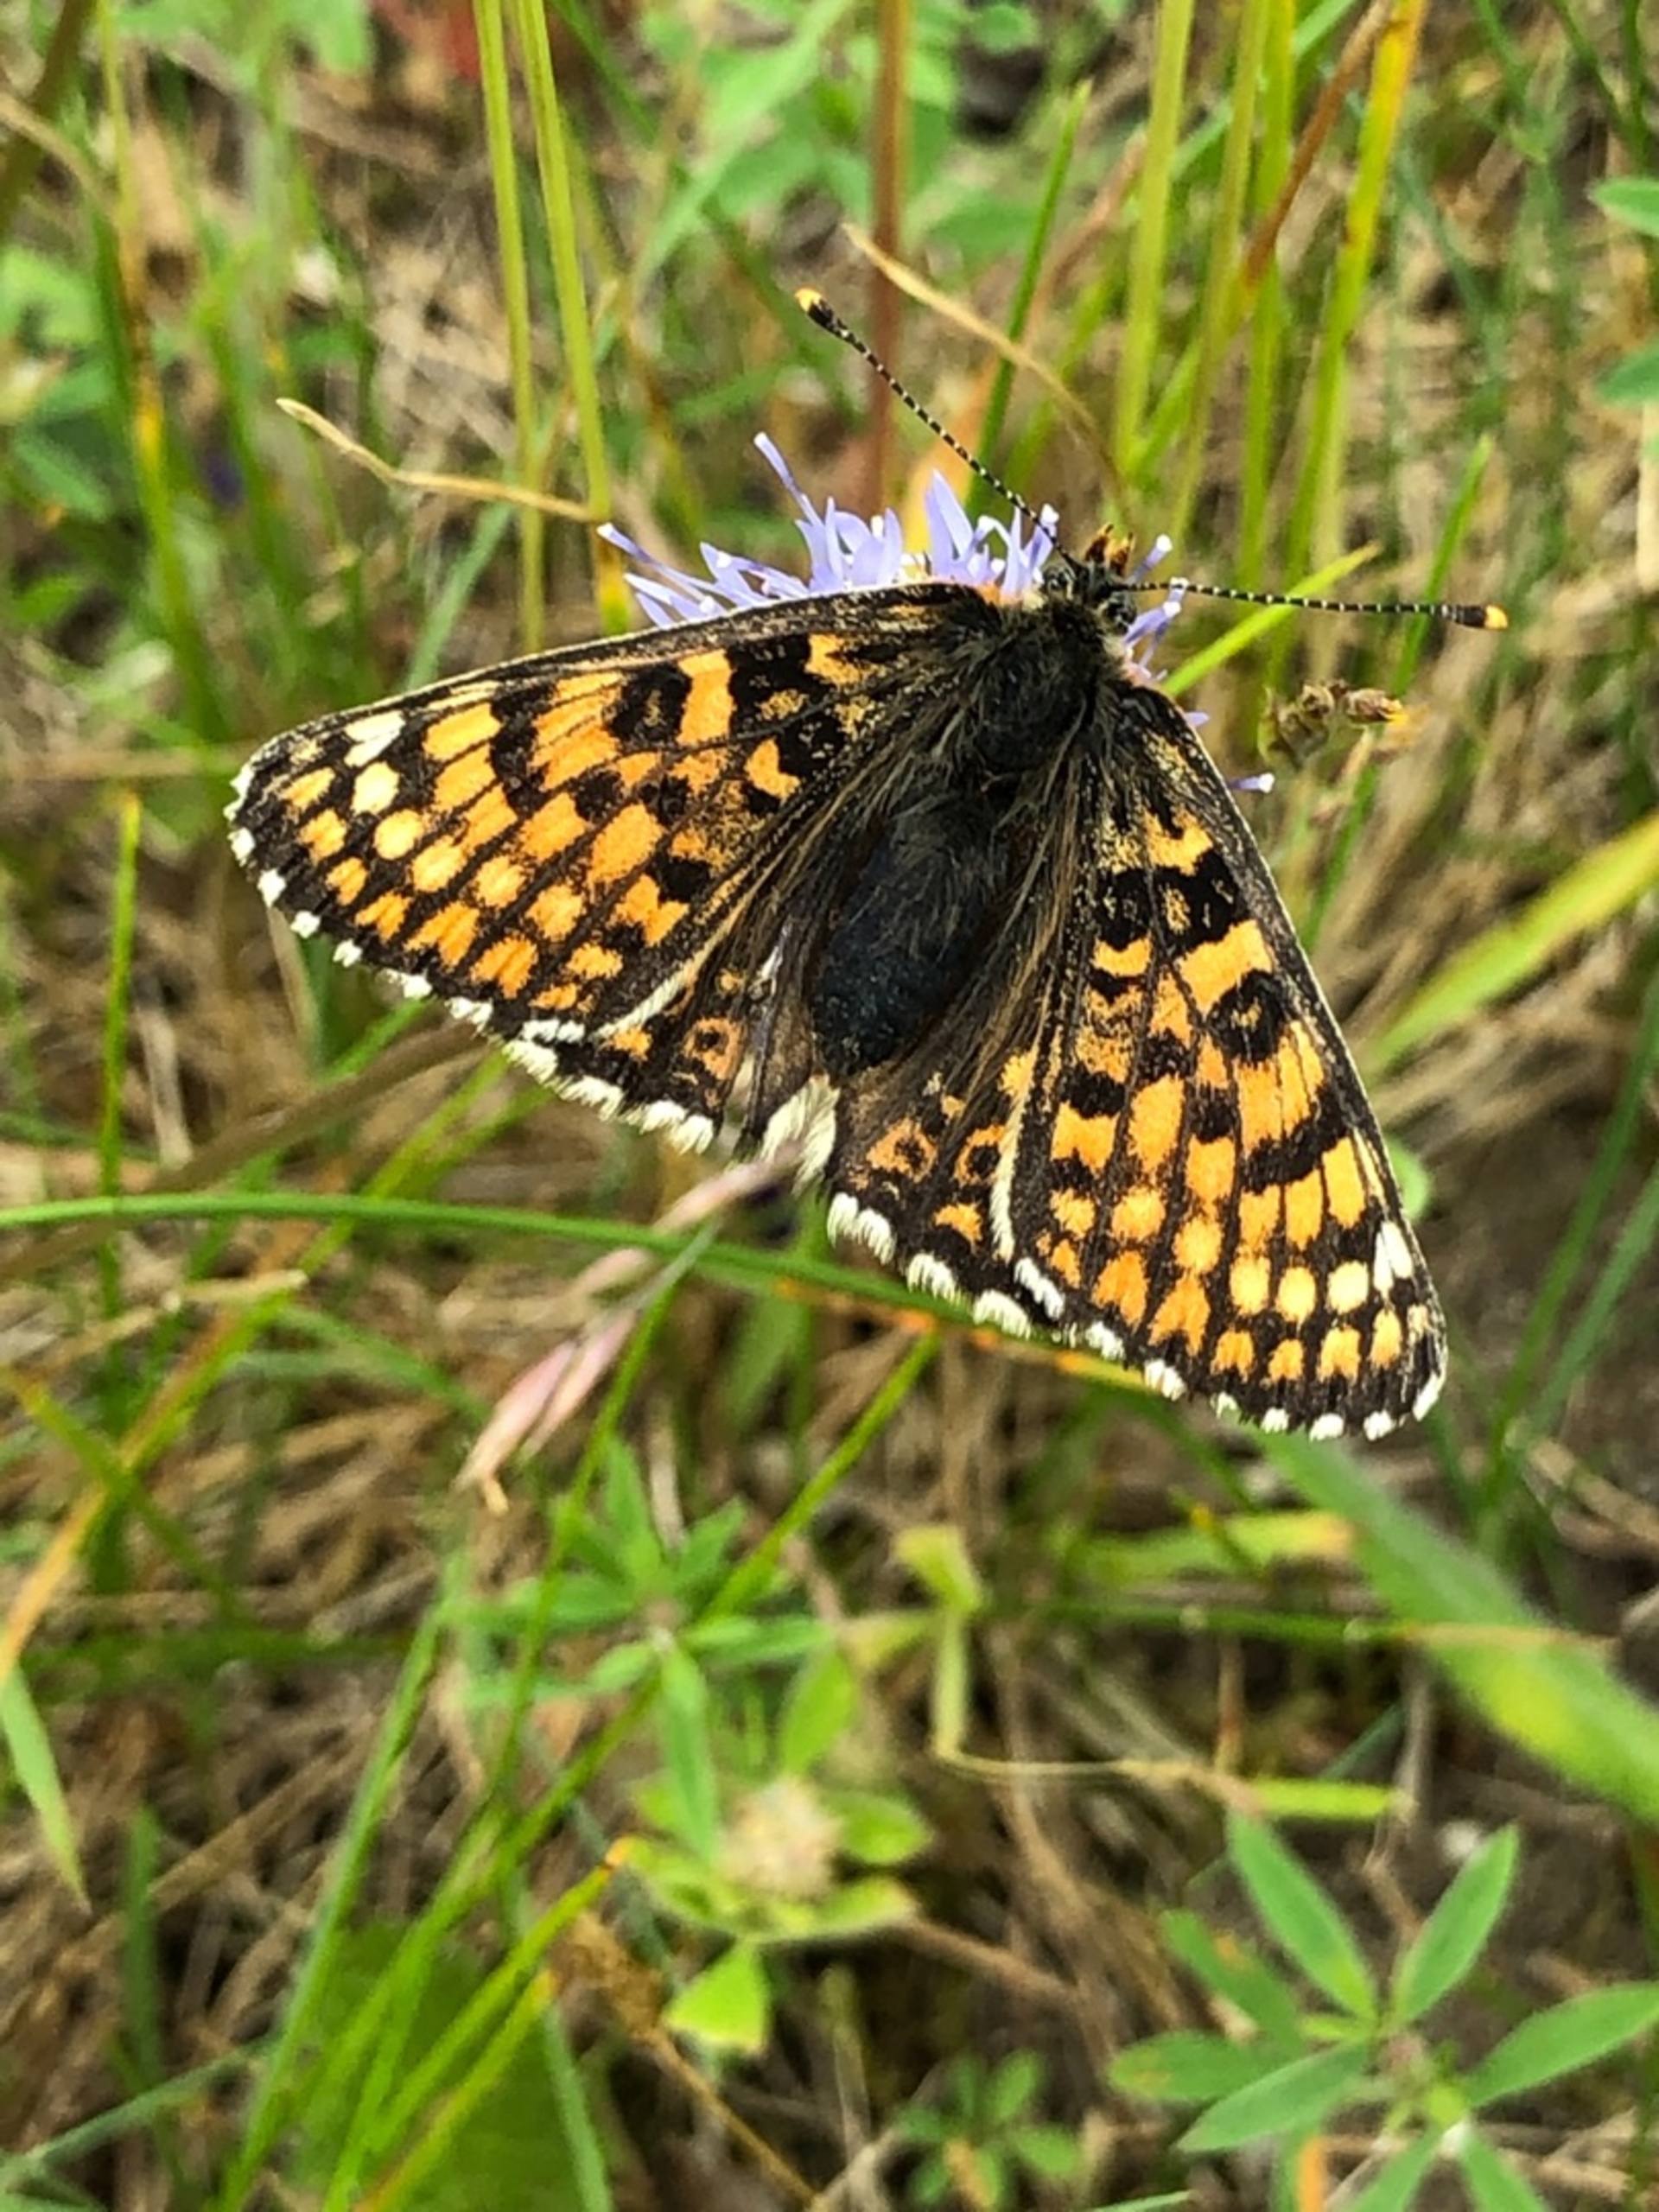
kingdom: Animalia
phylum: Arthropoda
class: Insecta
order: Lepidoptera
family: Nymphalidae
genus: Melitaea
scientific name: Melitaea cinxia
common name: Okkergul pletvinge
